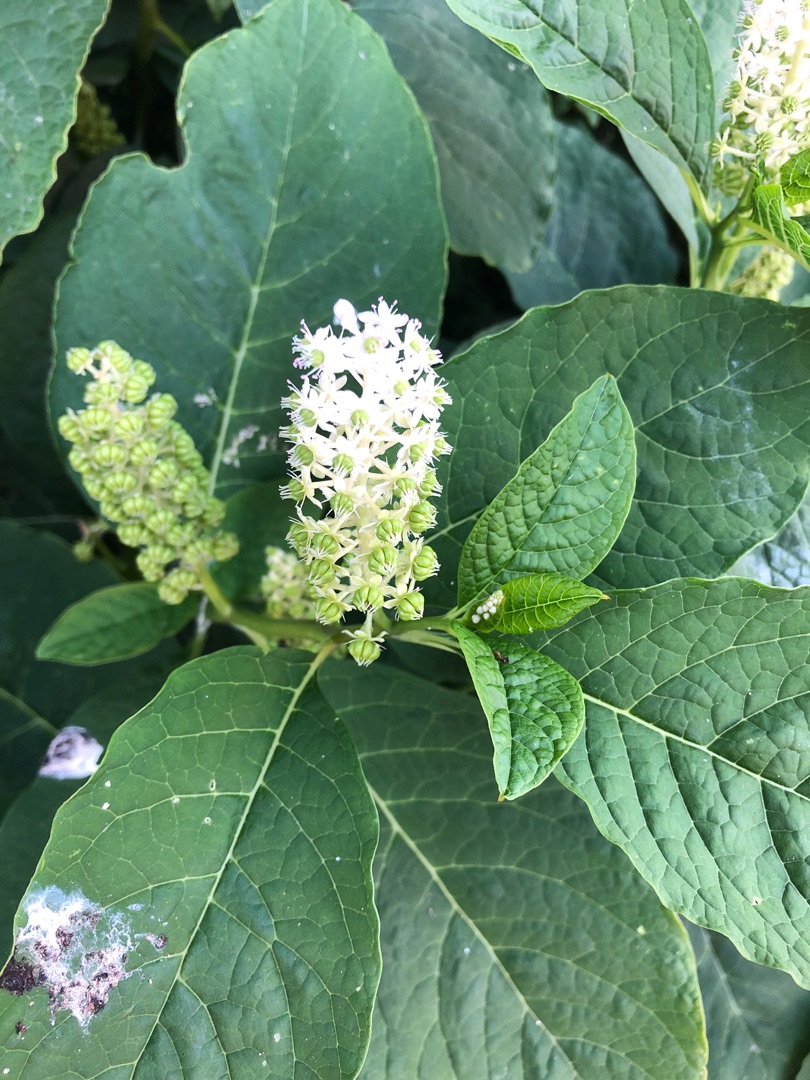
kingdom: Plantae
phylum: Tracheophyta
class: Magnoliopsida
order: Caryophyllales
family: Phytolaccaceae
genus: Phytolacca
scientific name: Phytolacca acinosa
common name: Asiatisk kermesbær
